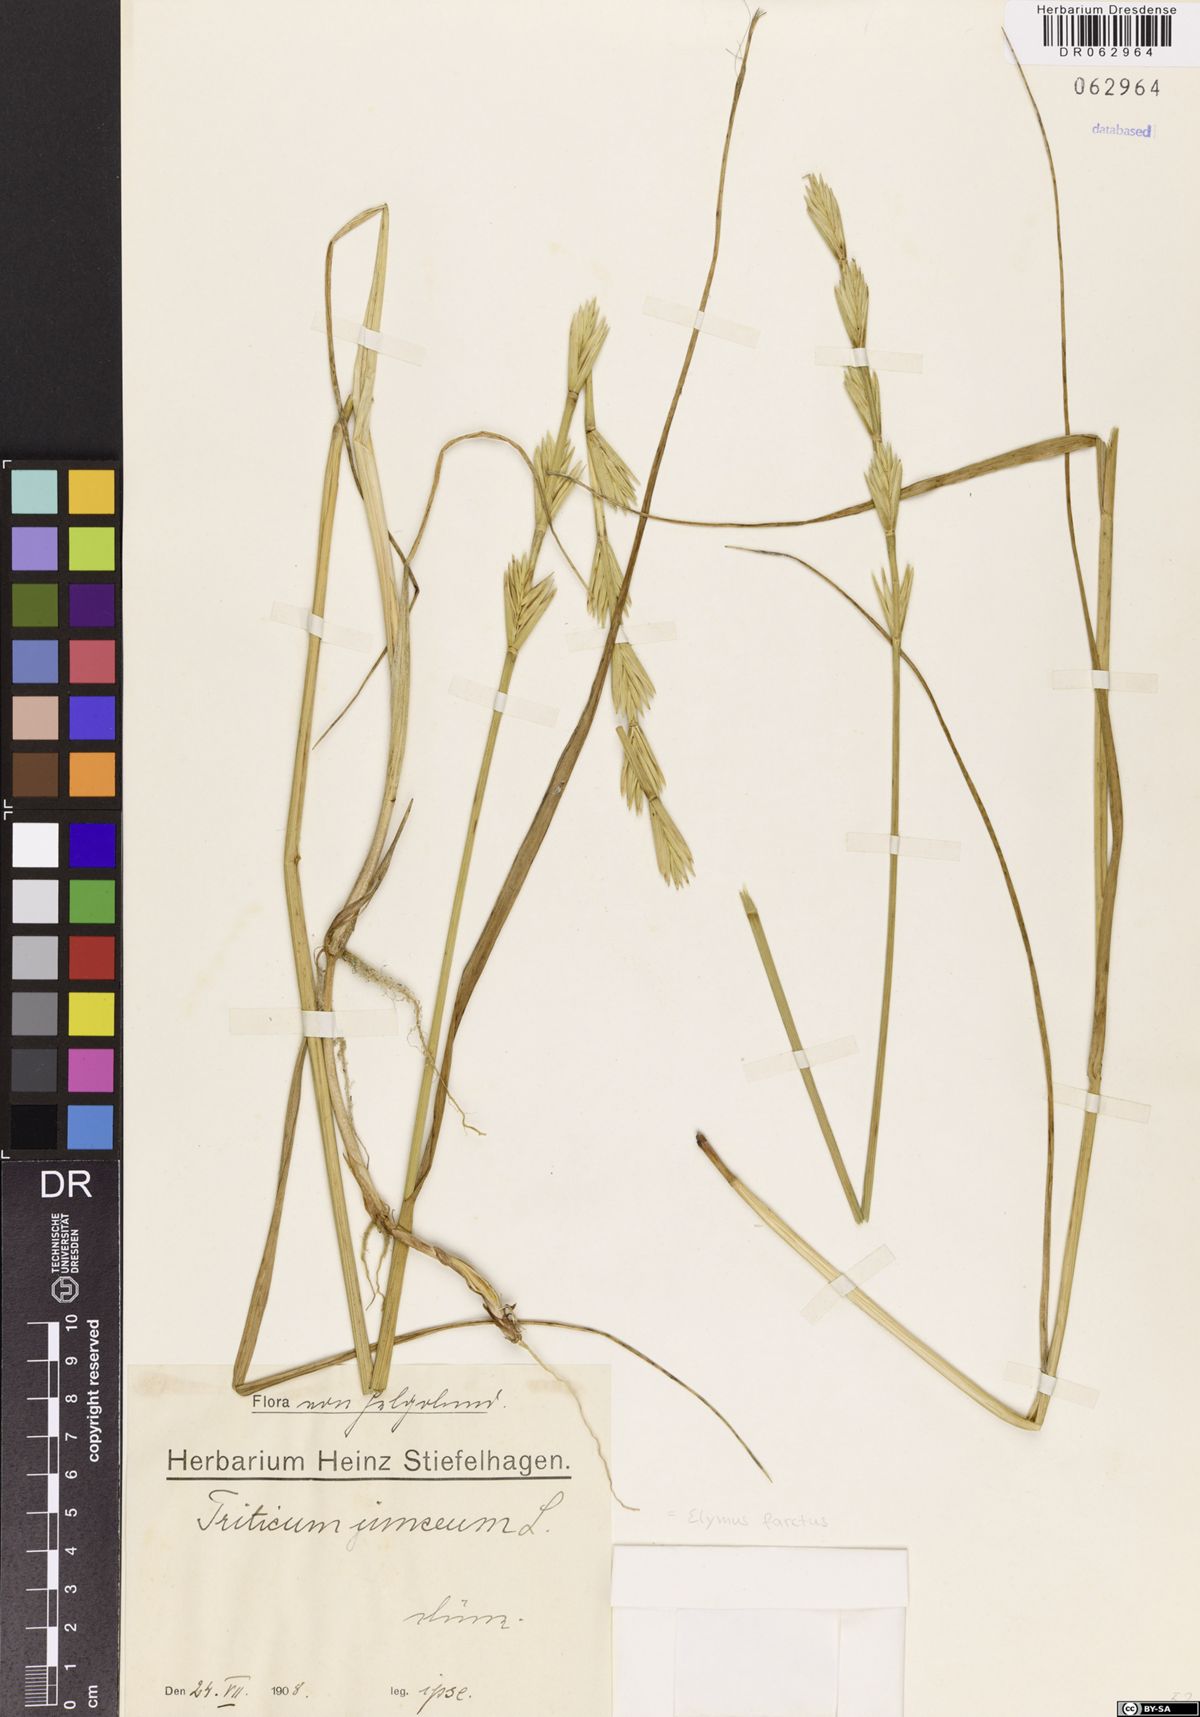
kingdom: Plantae
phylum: Tracheophyta
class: Liliopsida
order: Poales
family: Poaceae
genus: Thinopyrum
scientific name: Thinopyrum junceum
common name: Russian wheatgrass
